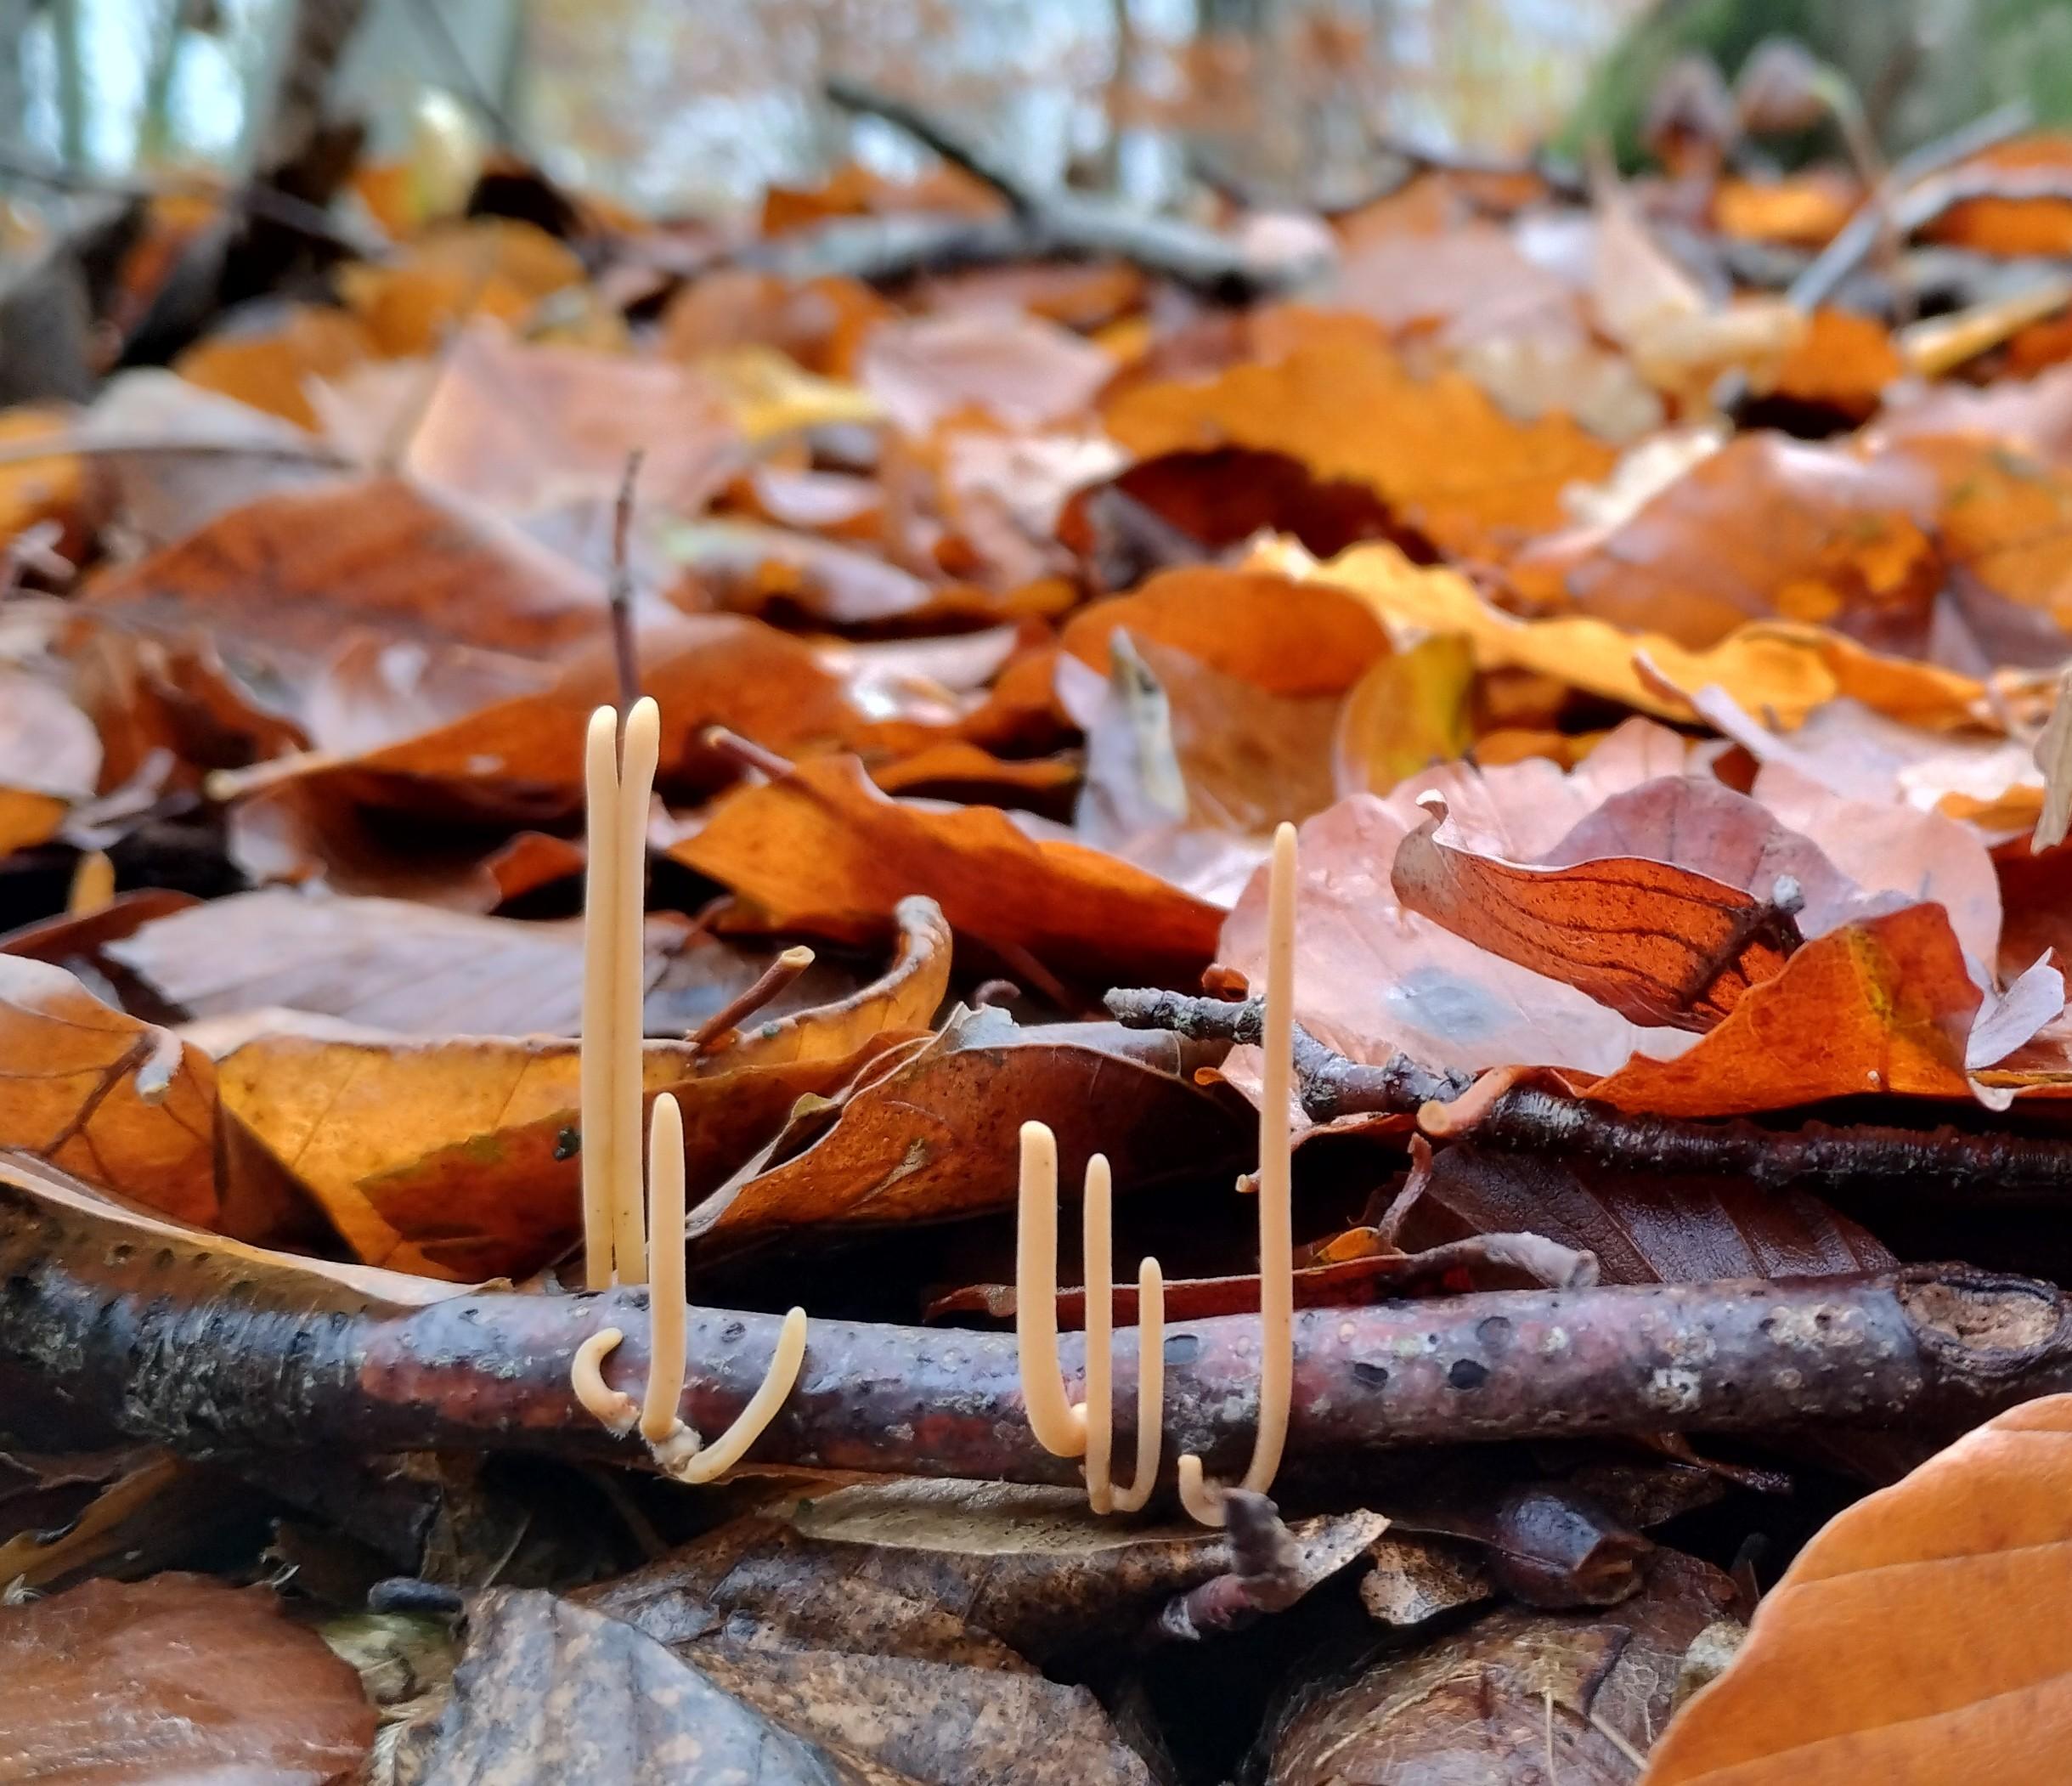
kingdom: Fungi
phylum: Basidiomycota
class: Agaricomycetes
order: Agaricales
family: Typhulaceae
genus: Typhula
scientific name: Typhula fistulosa
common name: pibet rørkølle
